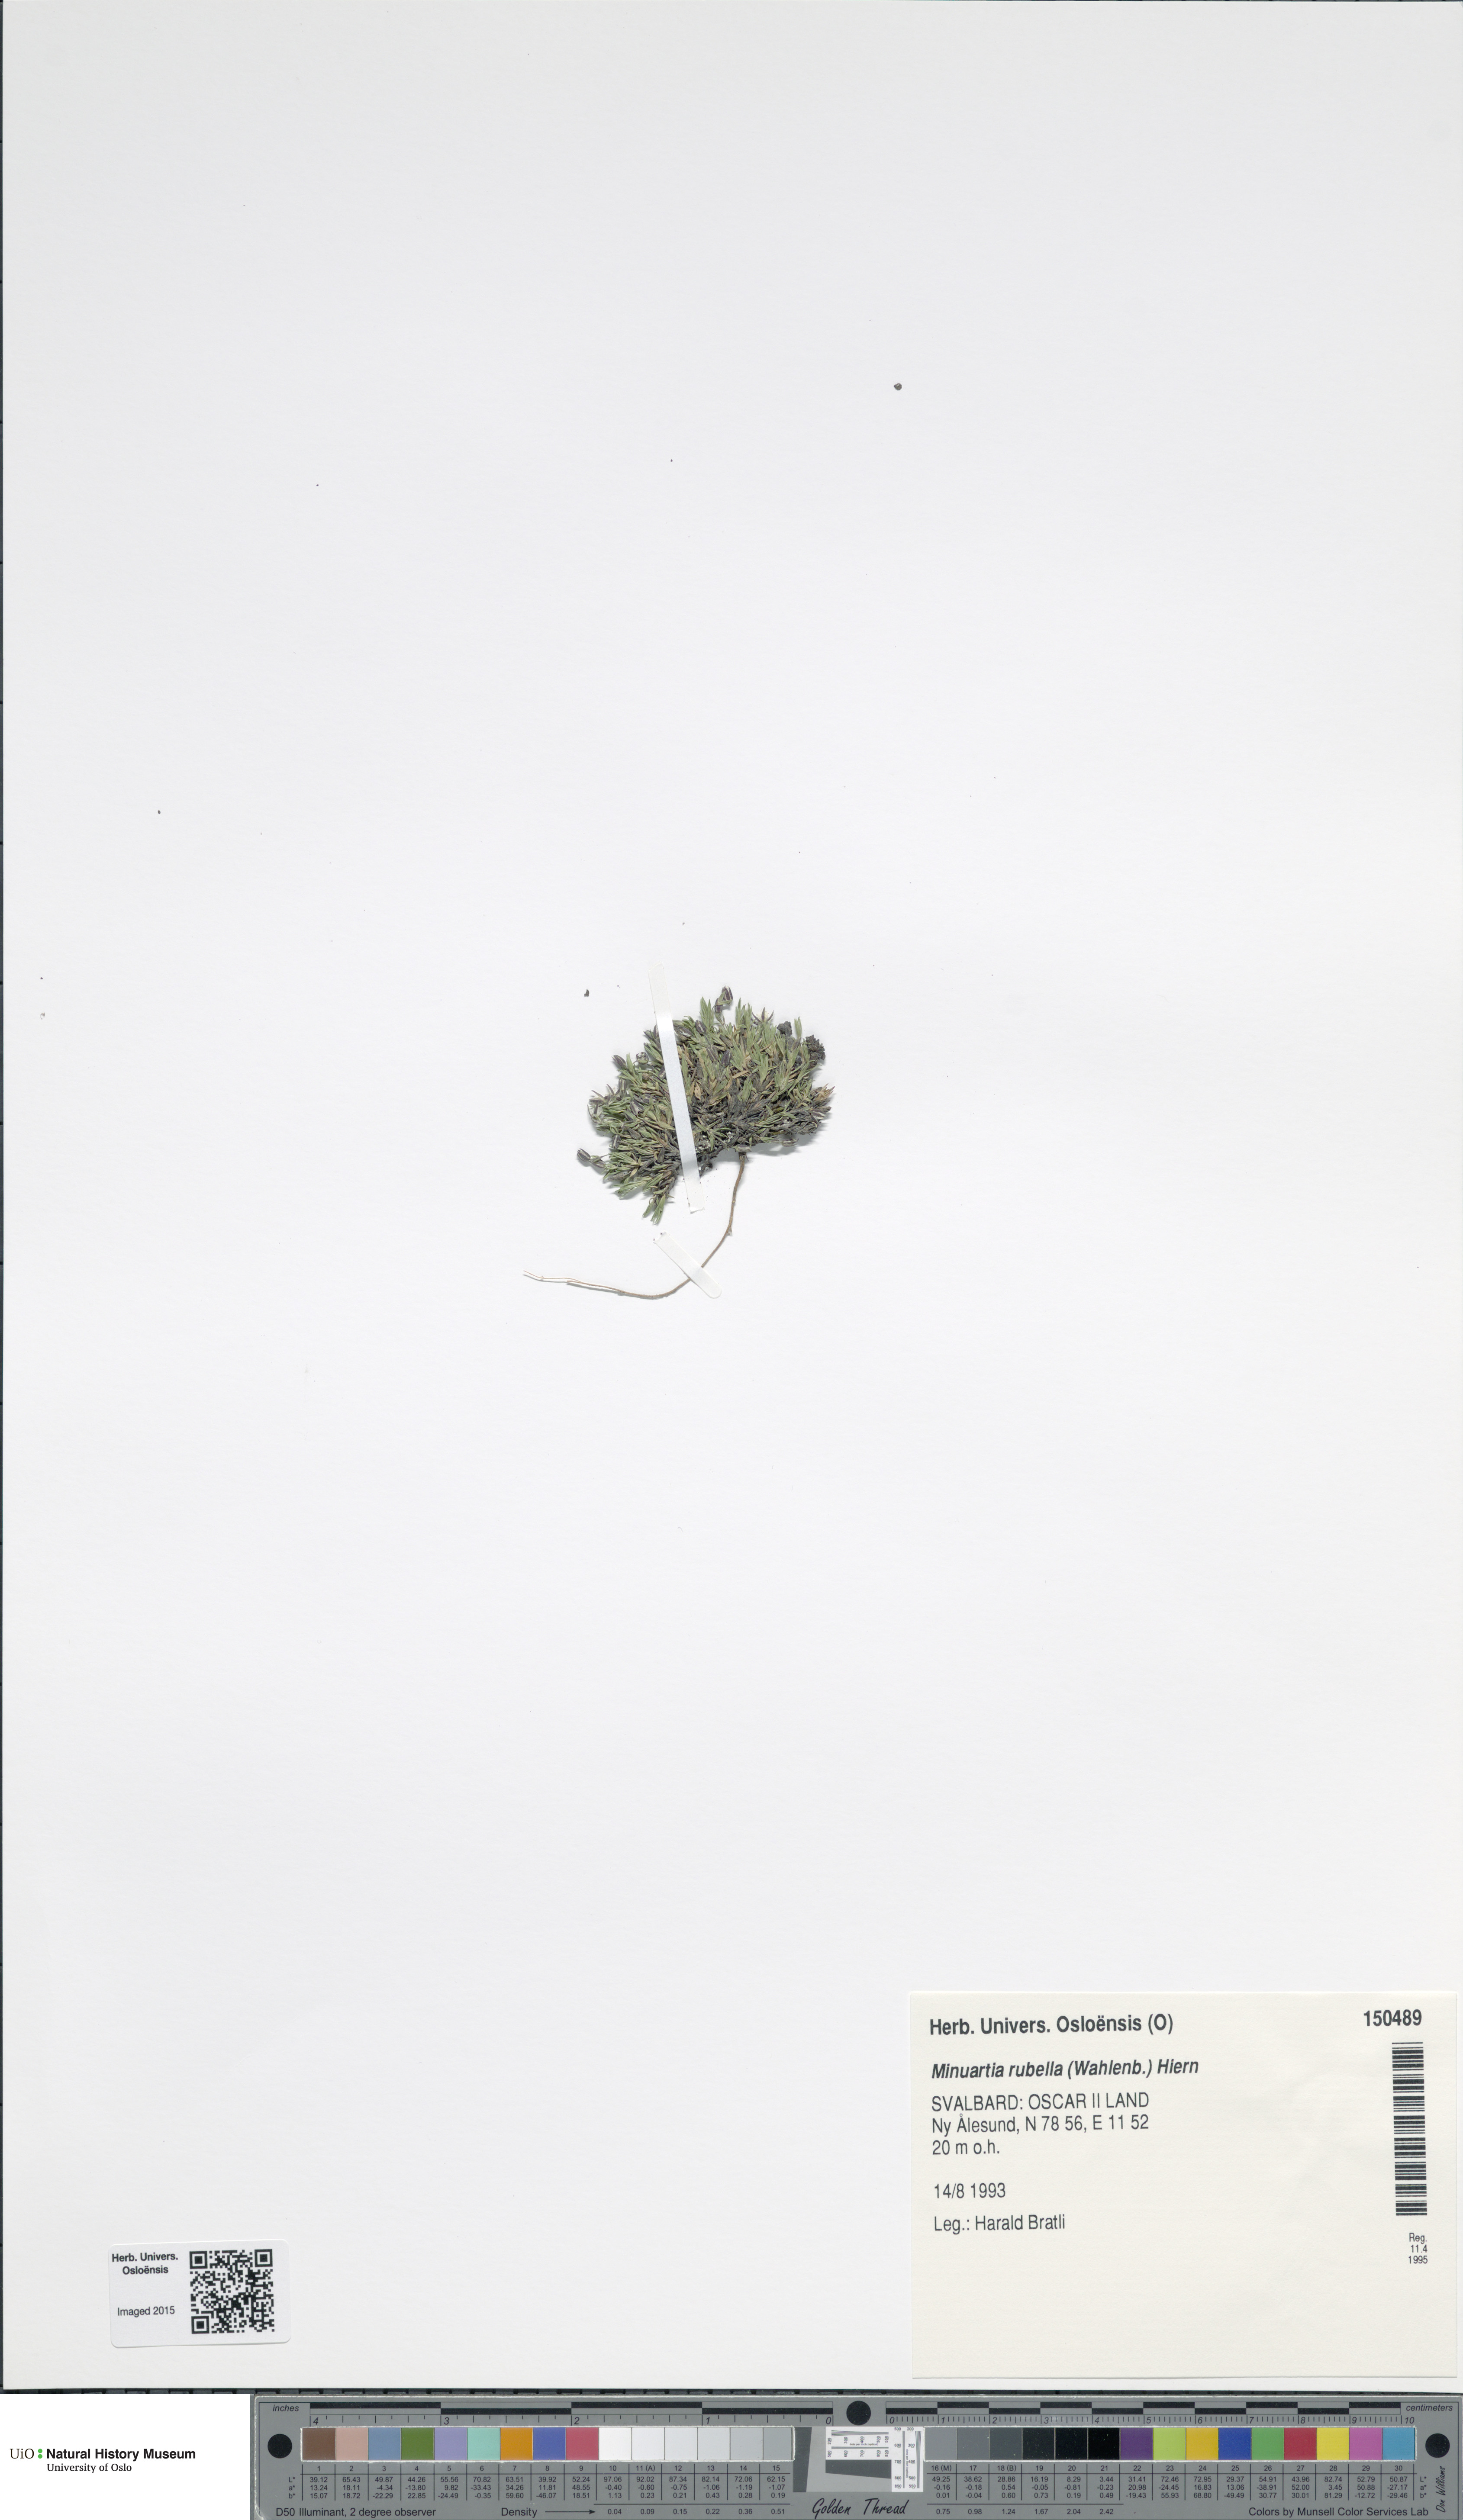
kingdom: Plantae
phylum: Tracheophyta
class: Magnoliopsida
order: Caryophyllales
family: Caryophyllaceae
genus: Sabulina
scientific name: Sabulina rubella
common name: Beautiful sandwort
